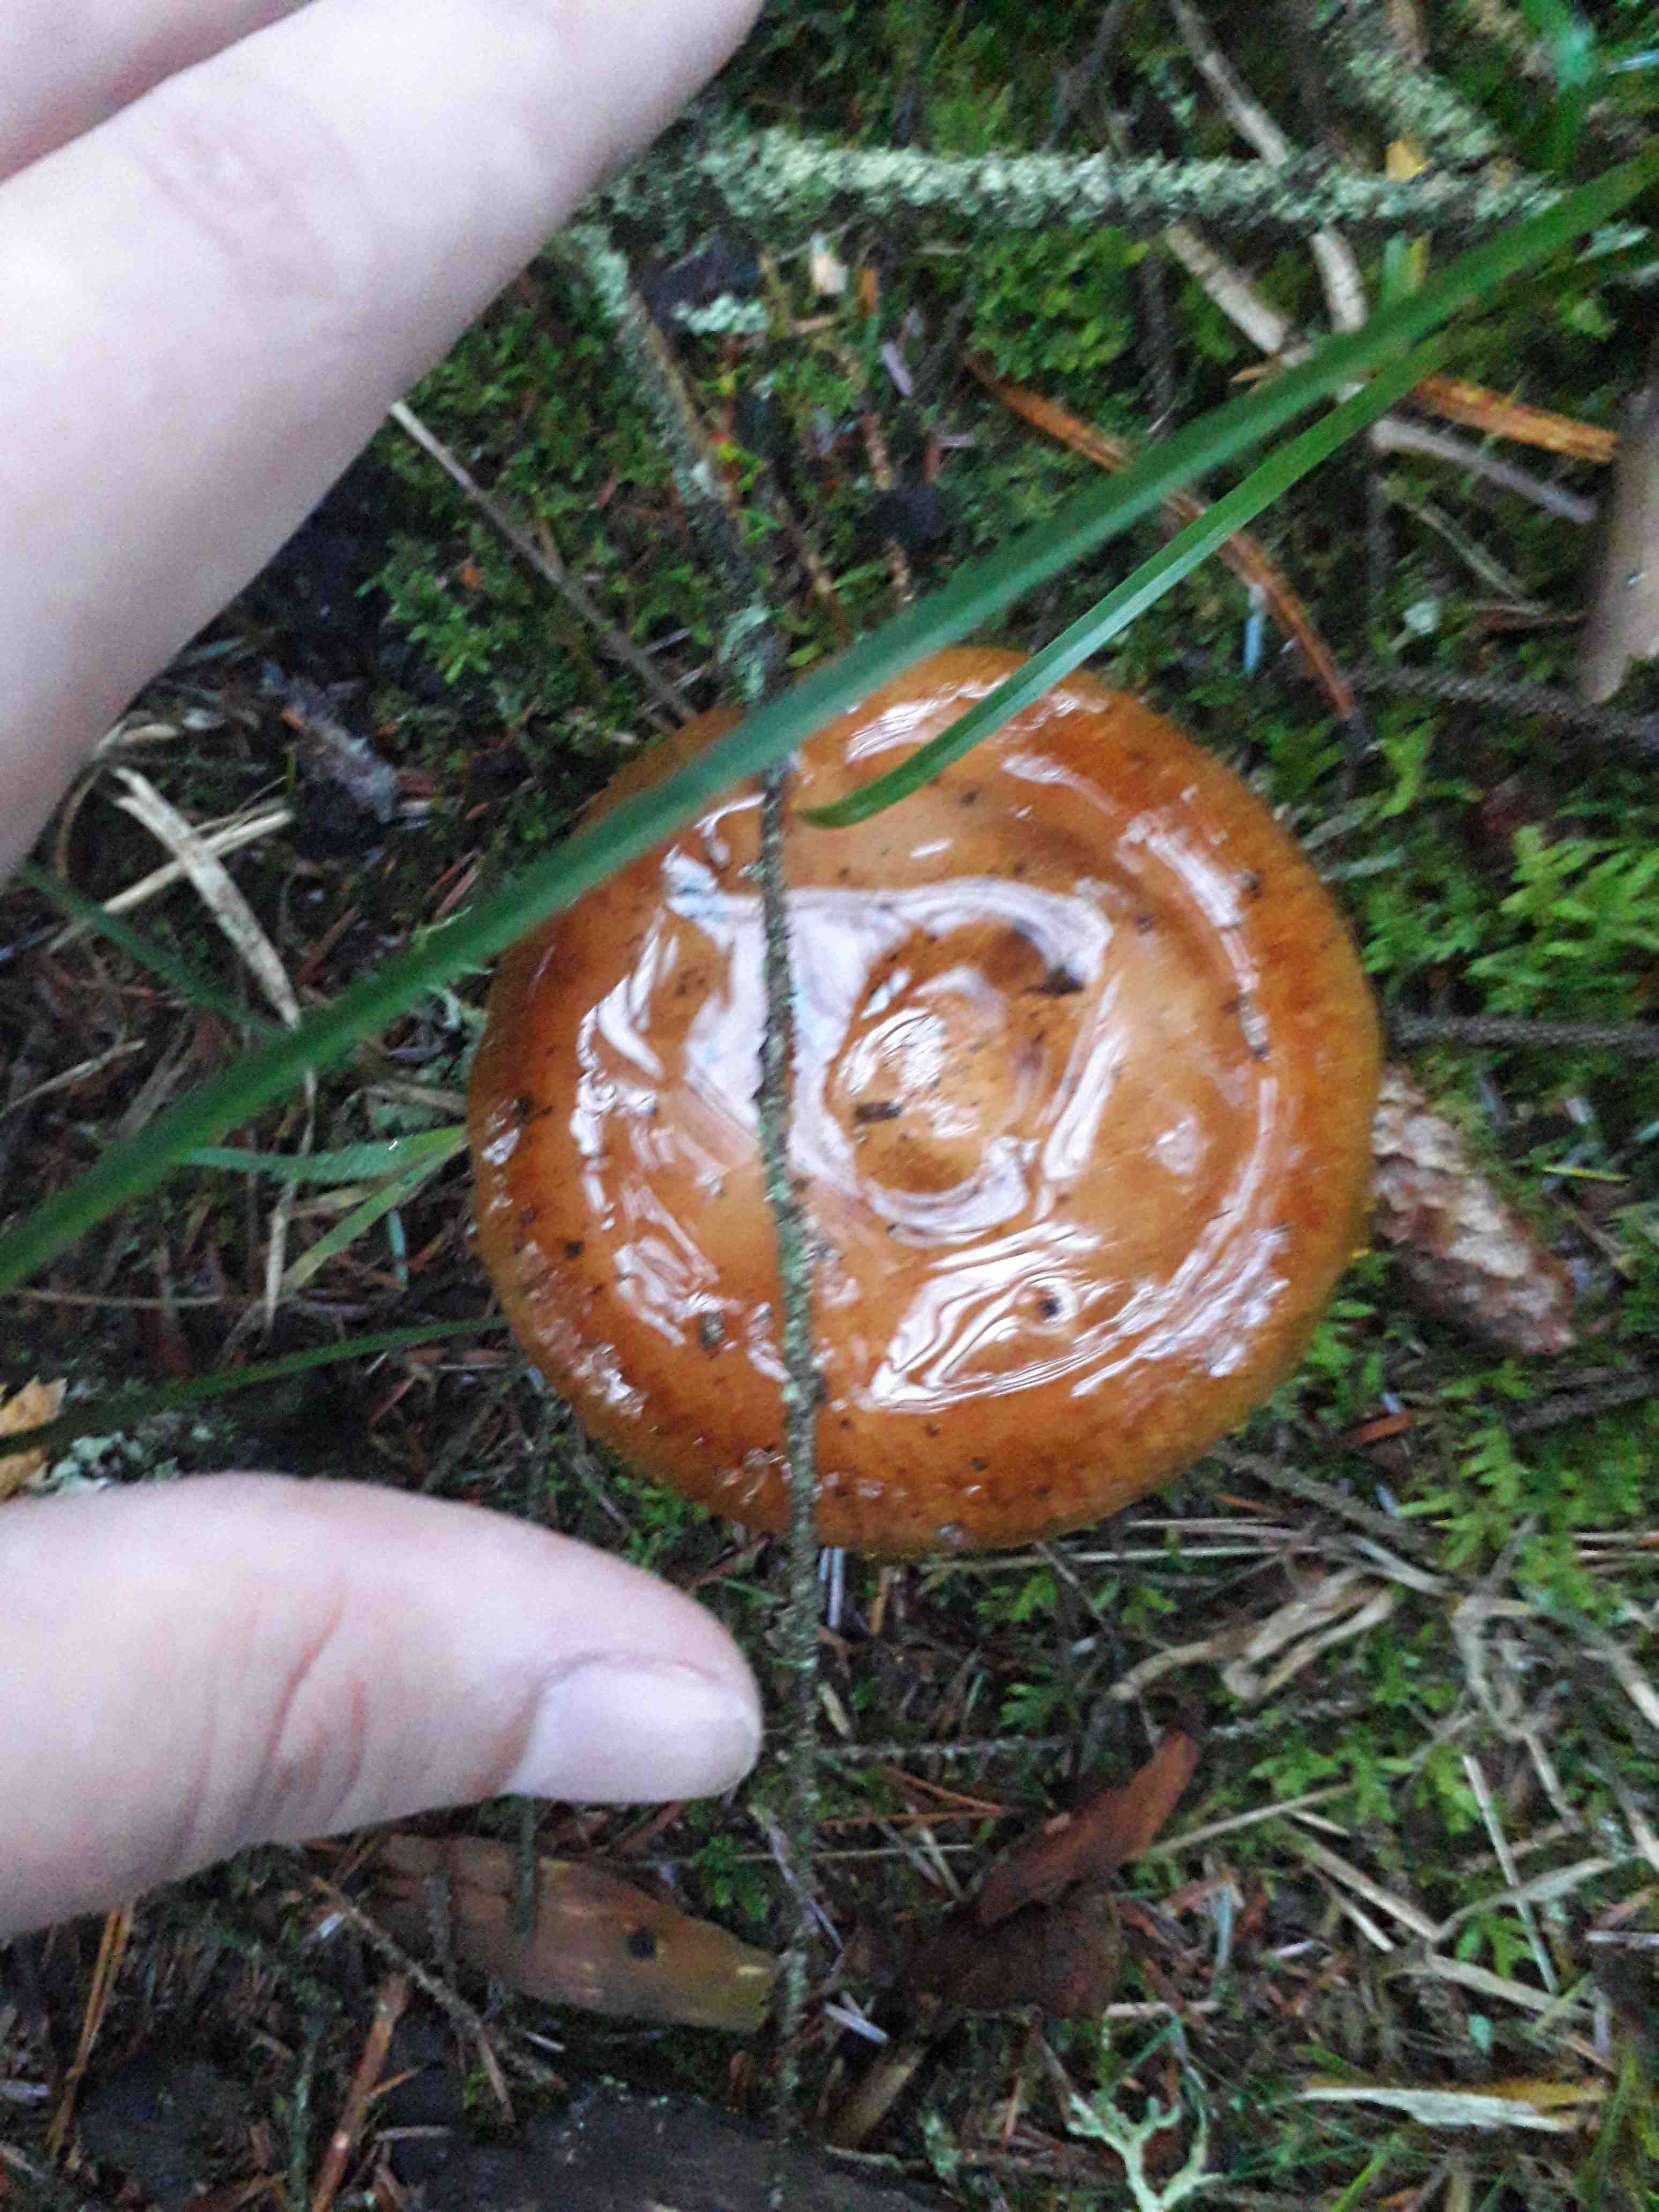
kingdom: Fungi
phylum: Basidiomycota
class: Agaricomycetes
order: Agaricales
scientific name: Agaricales
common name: champignonordenen
